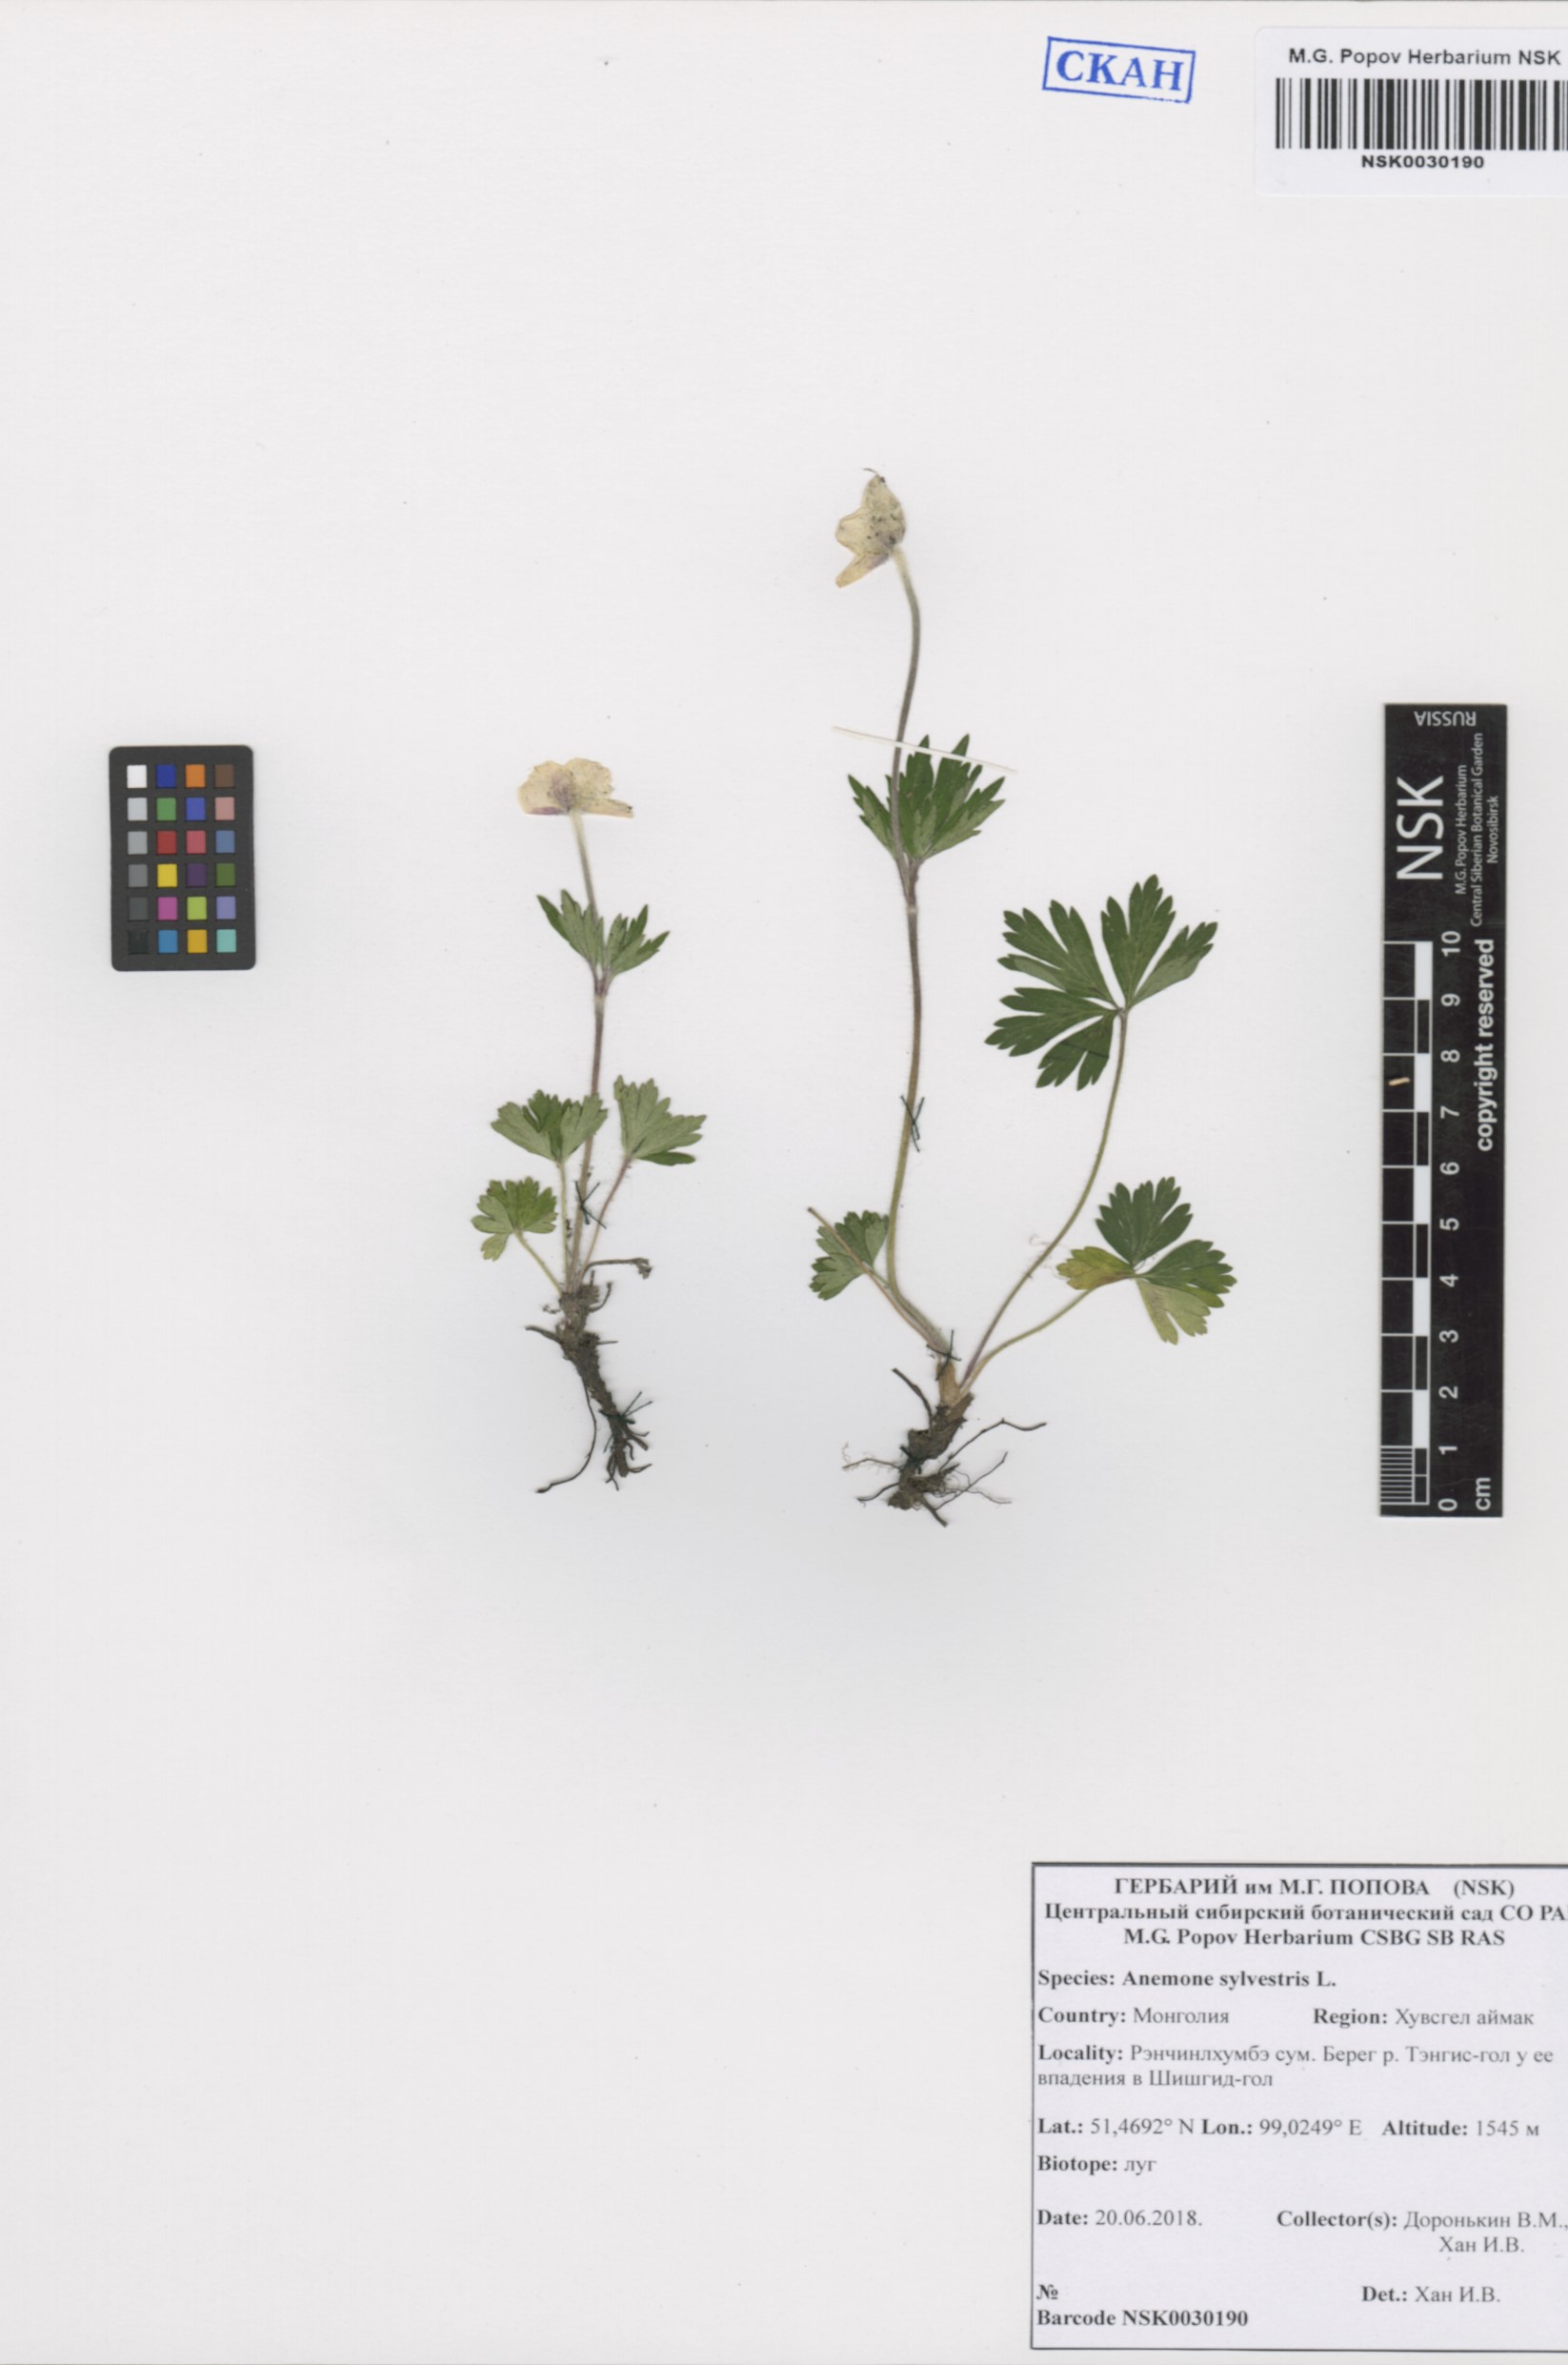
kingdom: Plantae
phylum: Tracheophyta
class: Magnoliopsida
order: Ranunculales
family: Ranunculaceae
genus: Anemone
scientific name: Anemone sylvestris
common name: Snowdrop anemone
